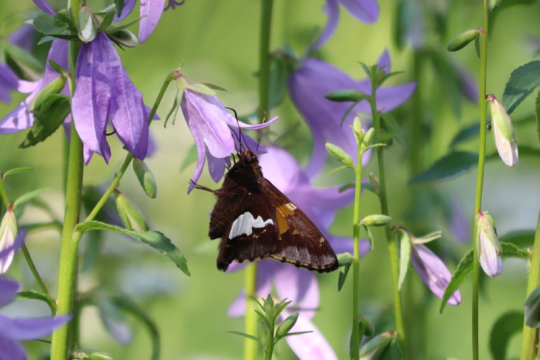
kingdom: Animalia
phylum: Arthropoda
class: Insecta
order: Lepidoptera
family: Hesperiidae
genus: Epargyreus
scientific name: Epargyreus clarus
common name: Silver-spotted Skipper
